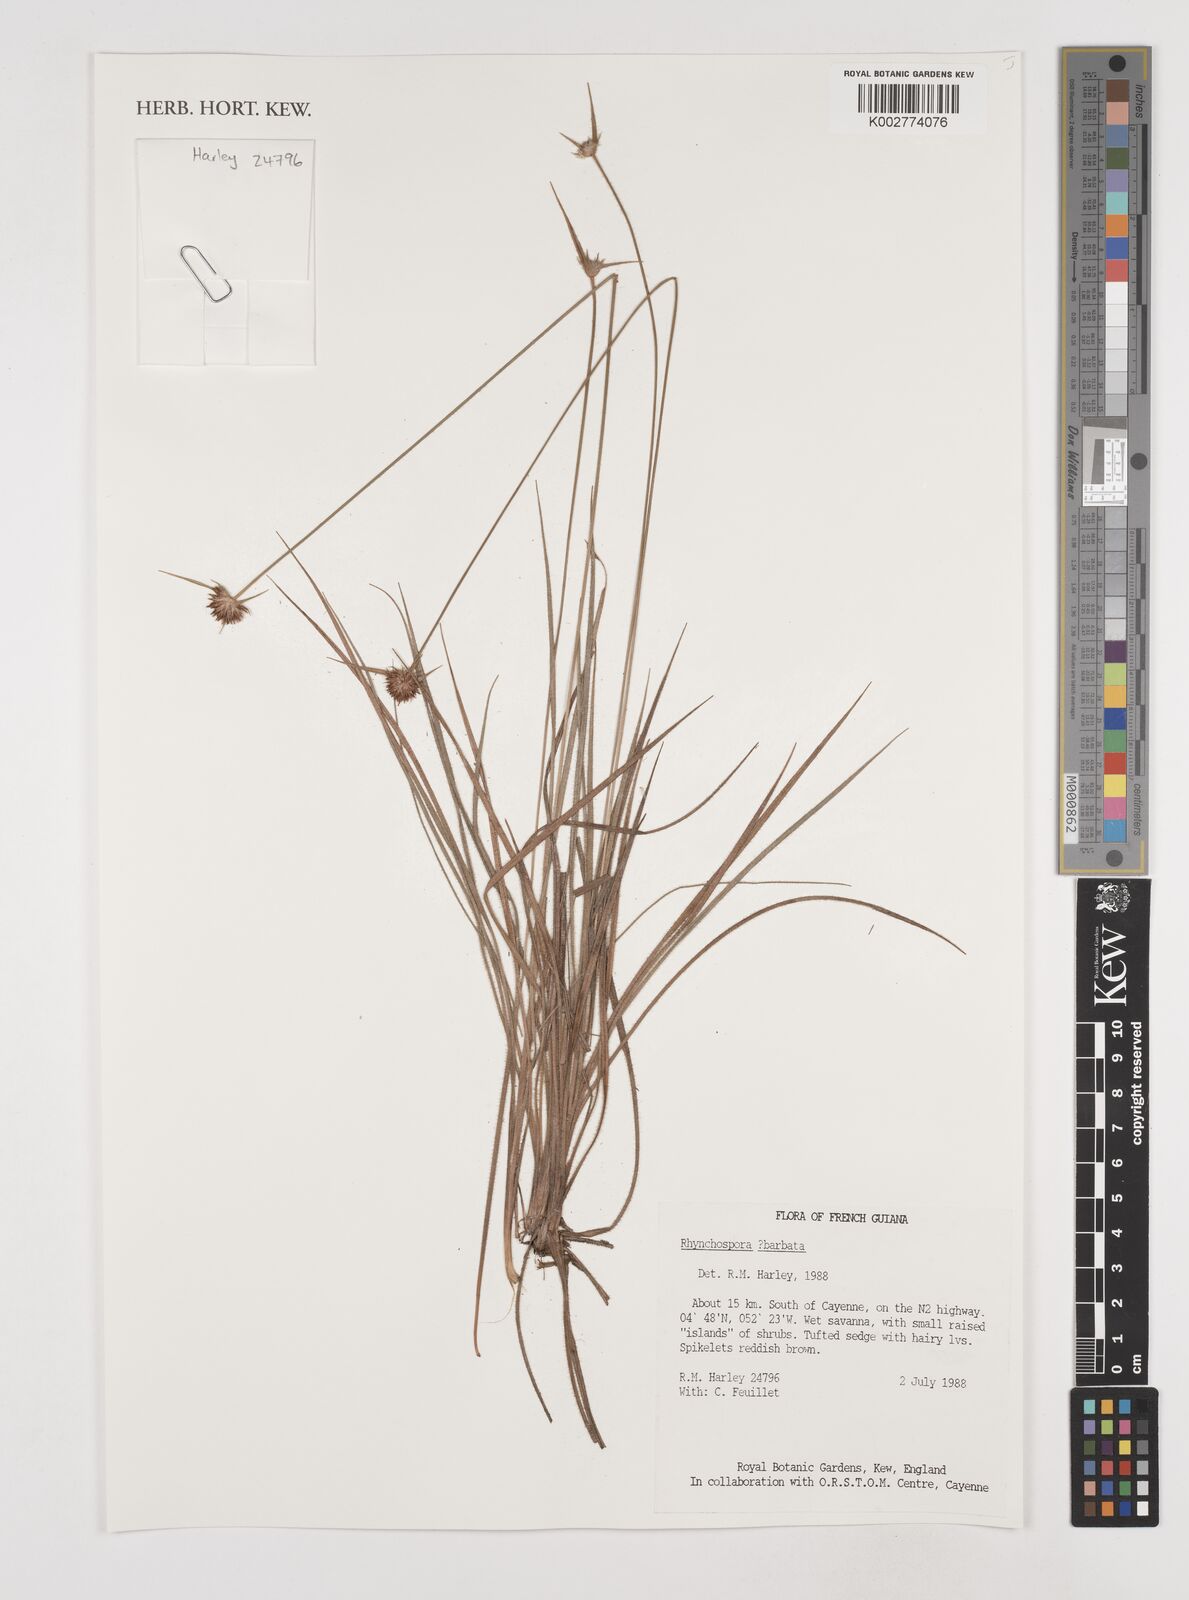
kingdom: Plantae
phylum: Tracheophyta
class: Liliopsida
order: Poales
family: Cyperaceae
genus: Rhynchospora
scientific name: Rhynchospora barbata
